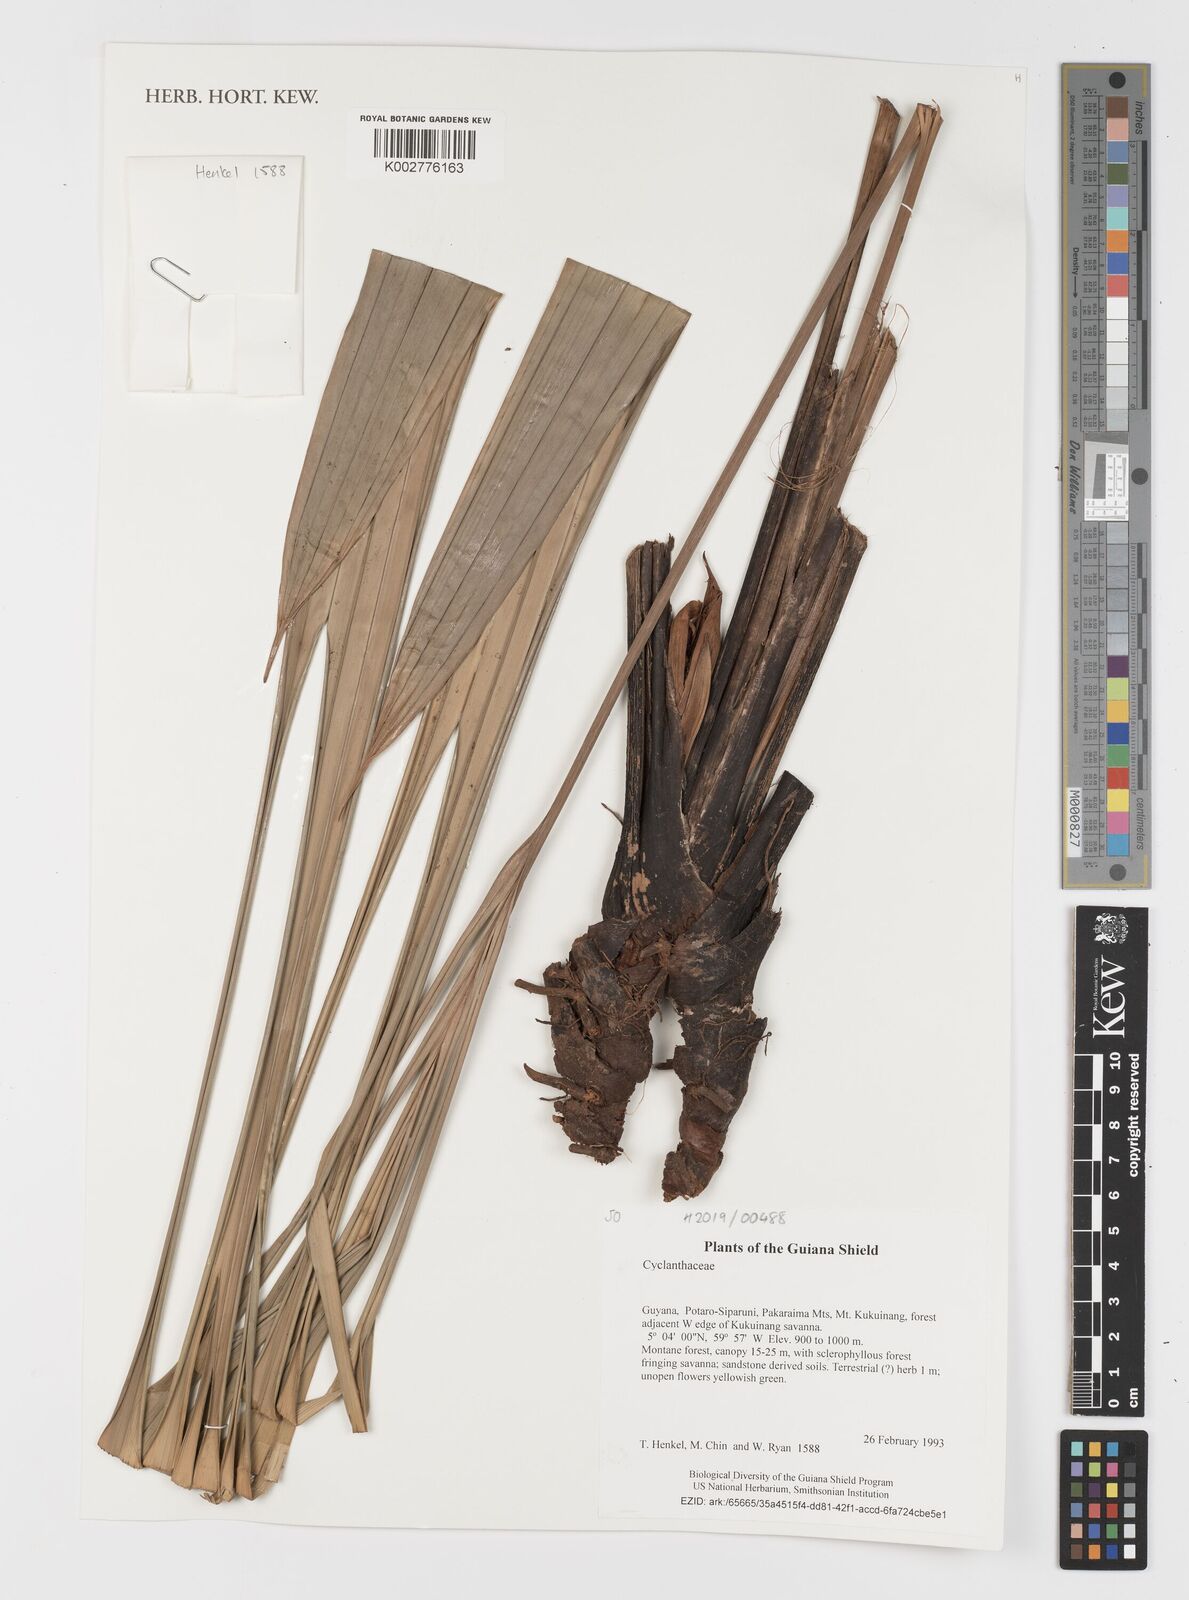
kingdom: Plantae
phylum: Tracheophyta
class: Liliopsida
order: Pandanales
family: Cyclanthaceae
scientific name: Cyclanthaceae
